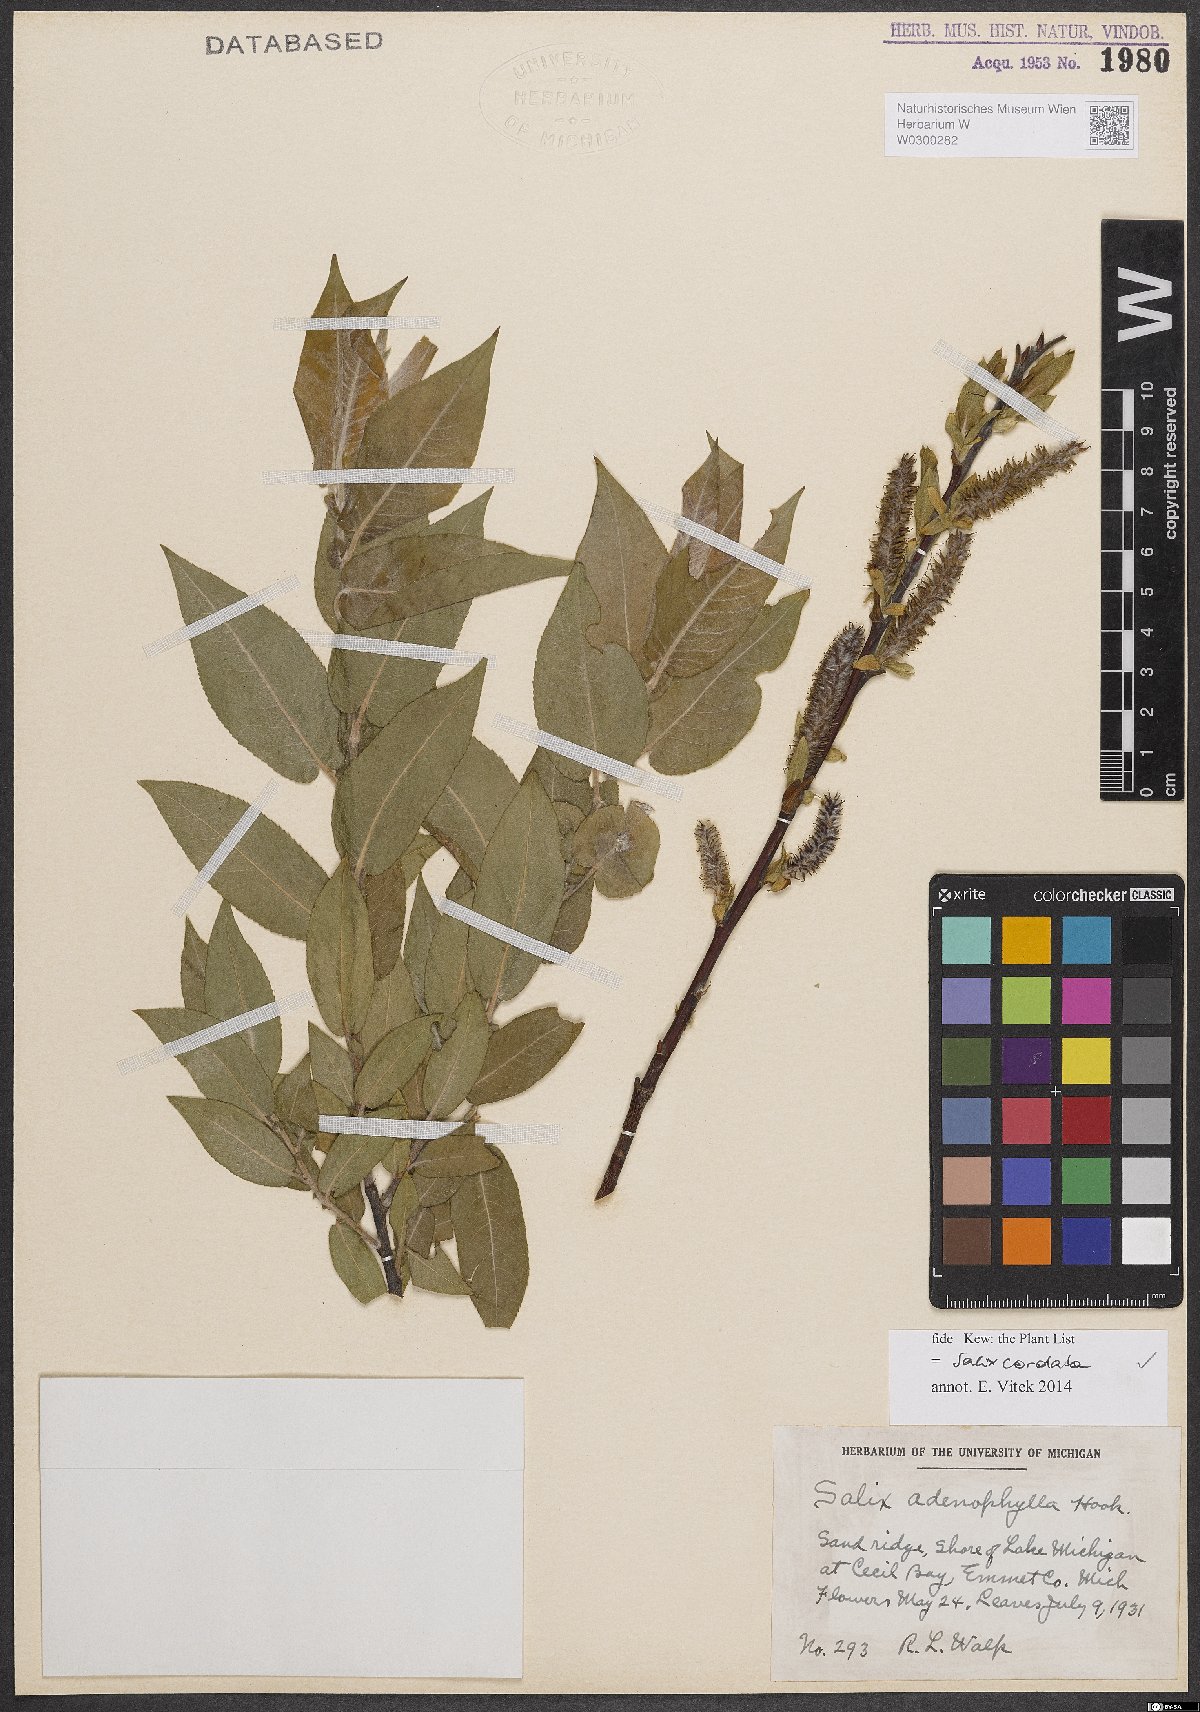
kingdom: Plantae
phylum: Tracheophyta
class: Magnoliopsida
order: Malpighiales
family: Salicaceae
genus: Salix
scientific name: Salix cordata
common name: Heart-leaf willow
